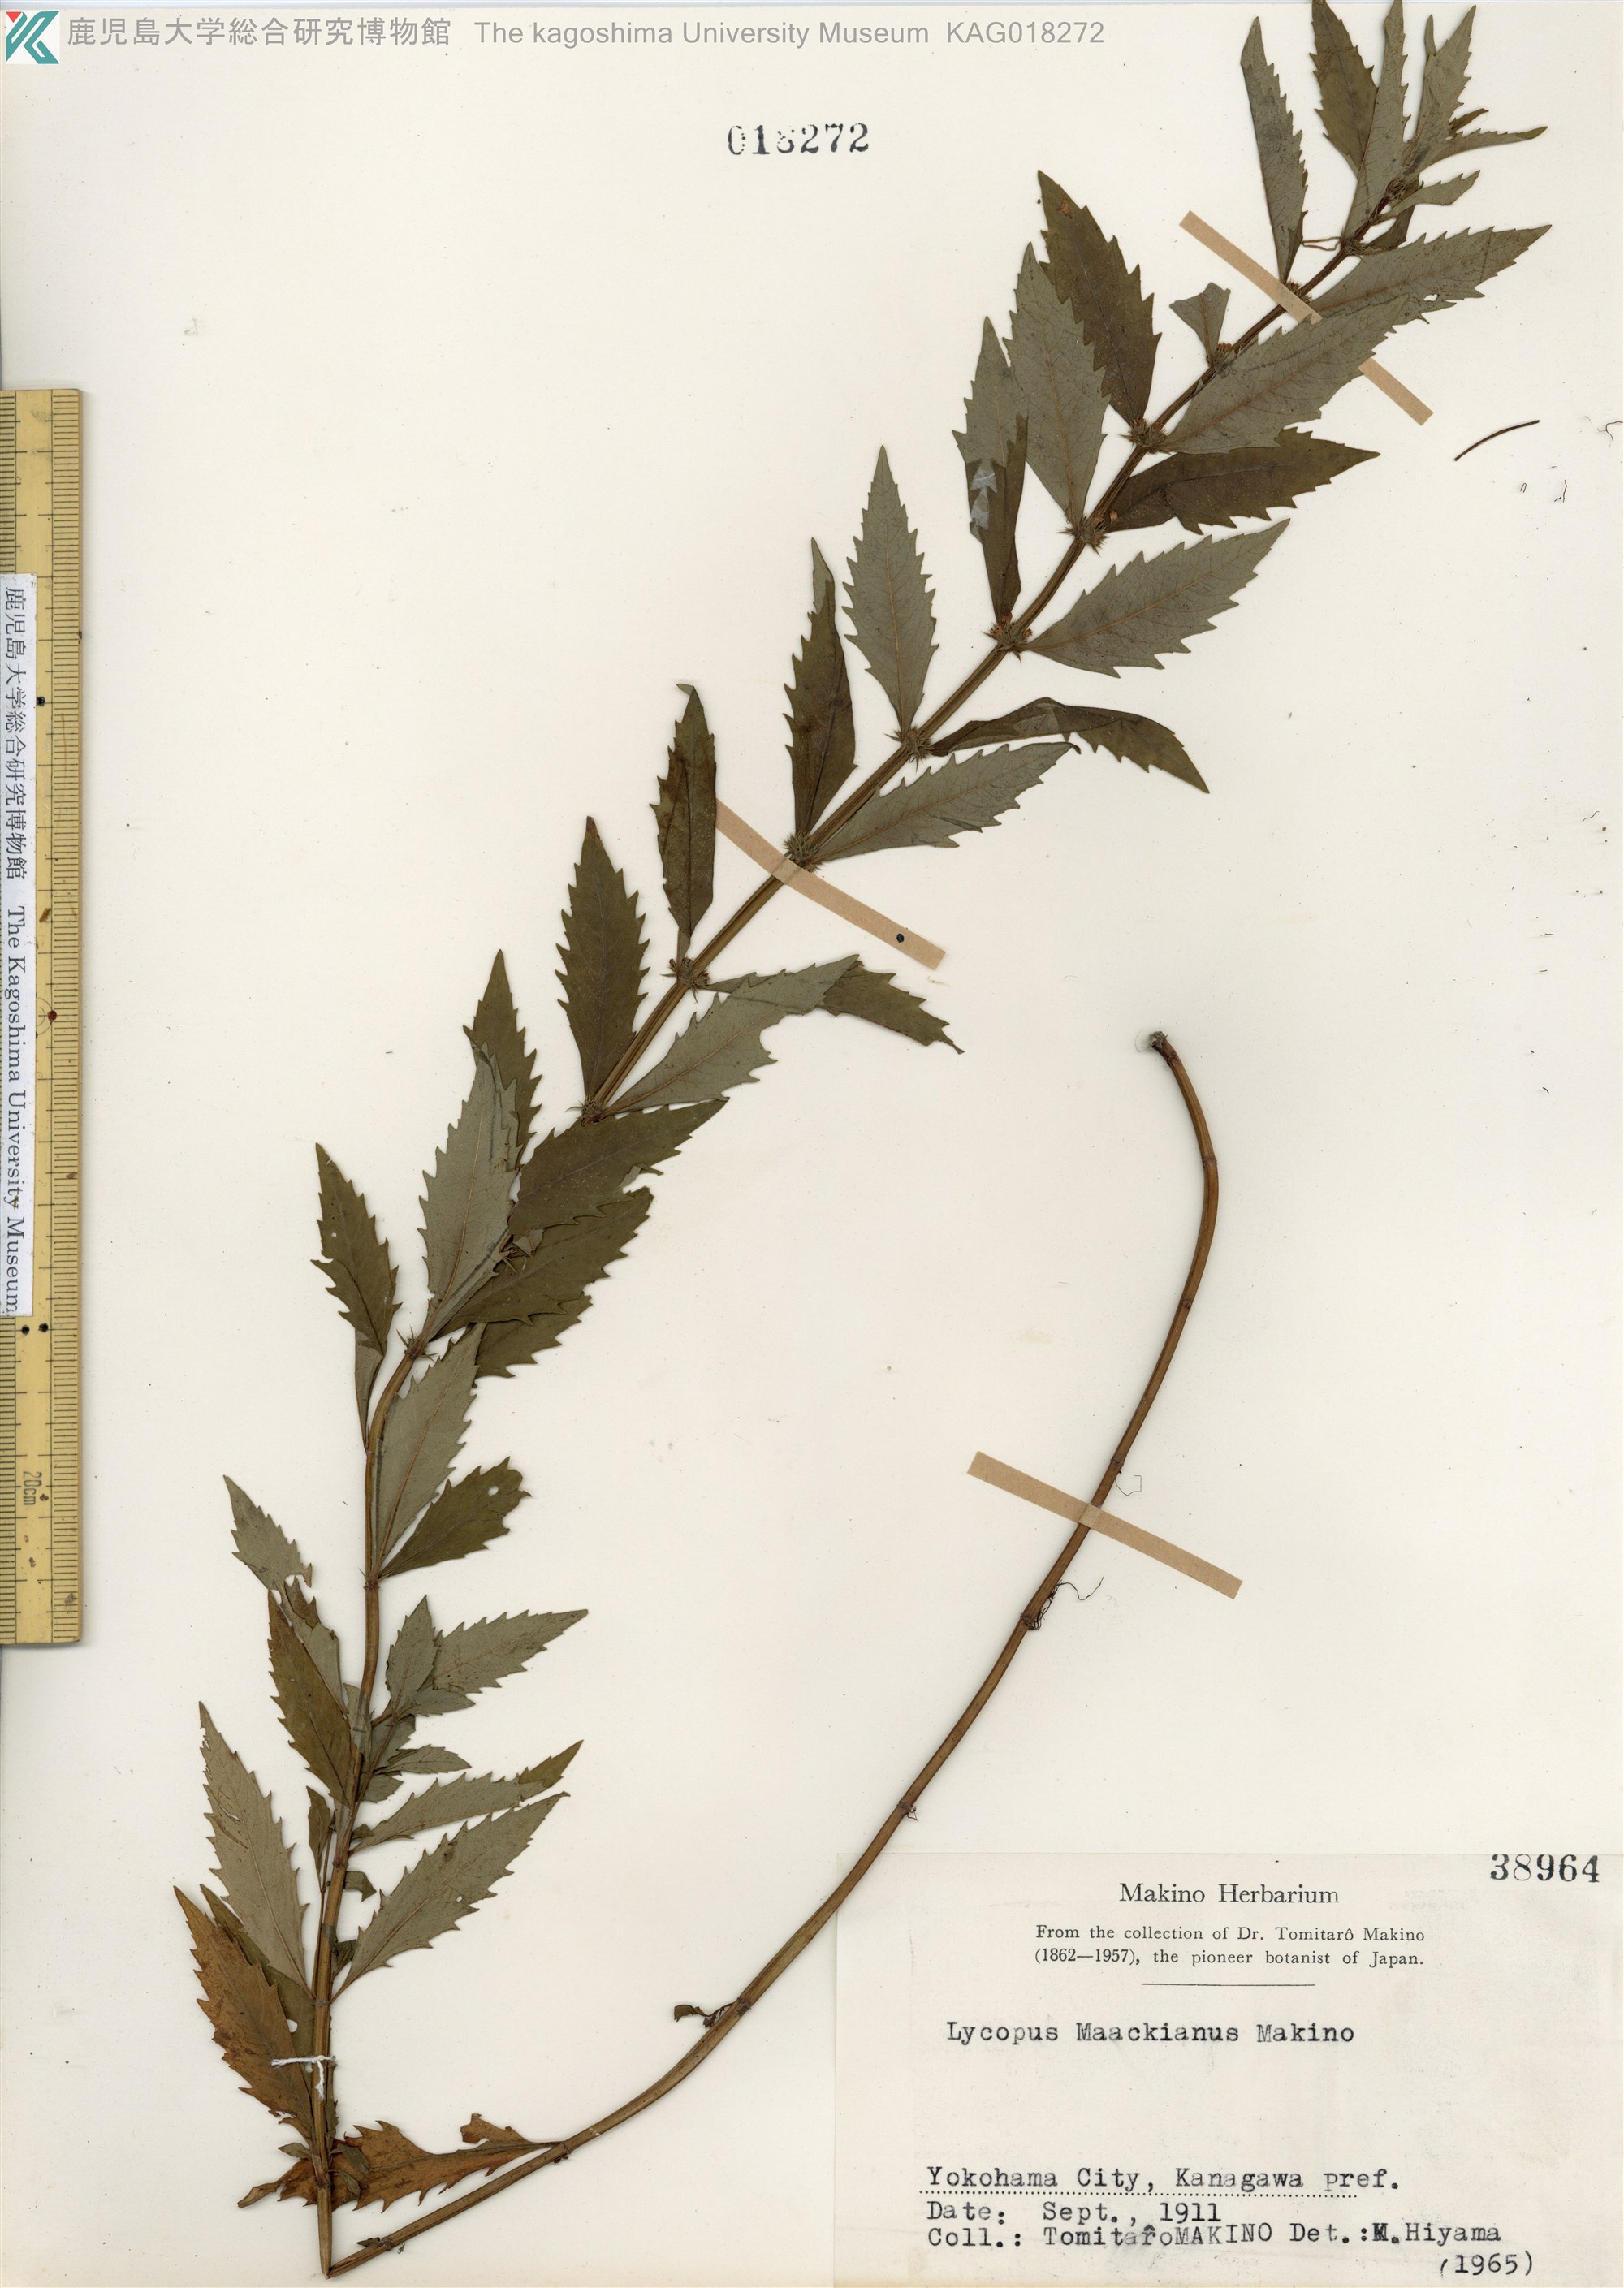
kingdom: Plantae
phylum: Tracheophyta
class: Magnoliopsida
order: Lamiales
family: Lamiaceae
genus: Lycopus
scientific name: Lycopus lucidus
